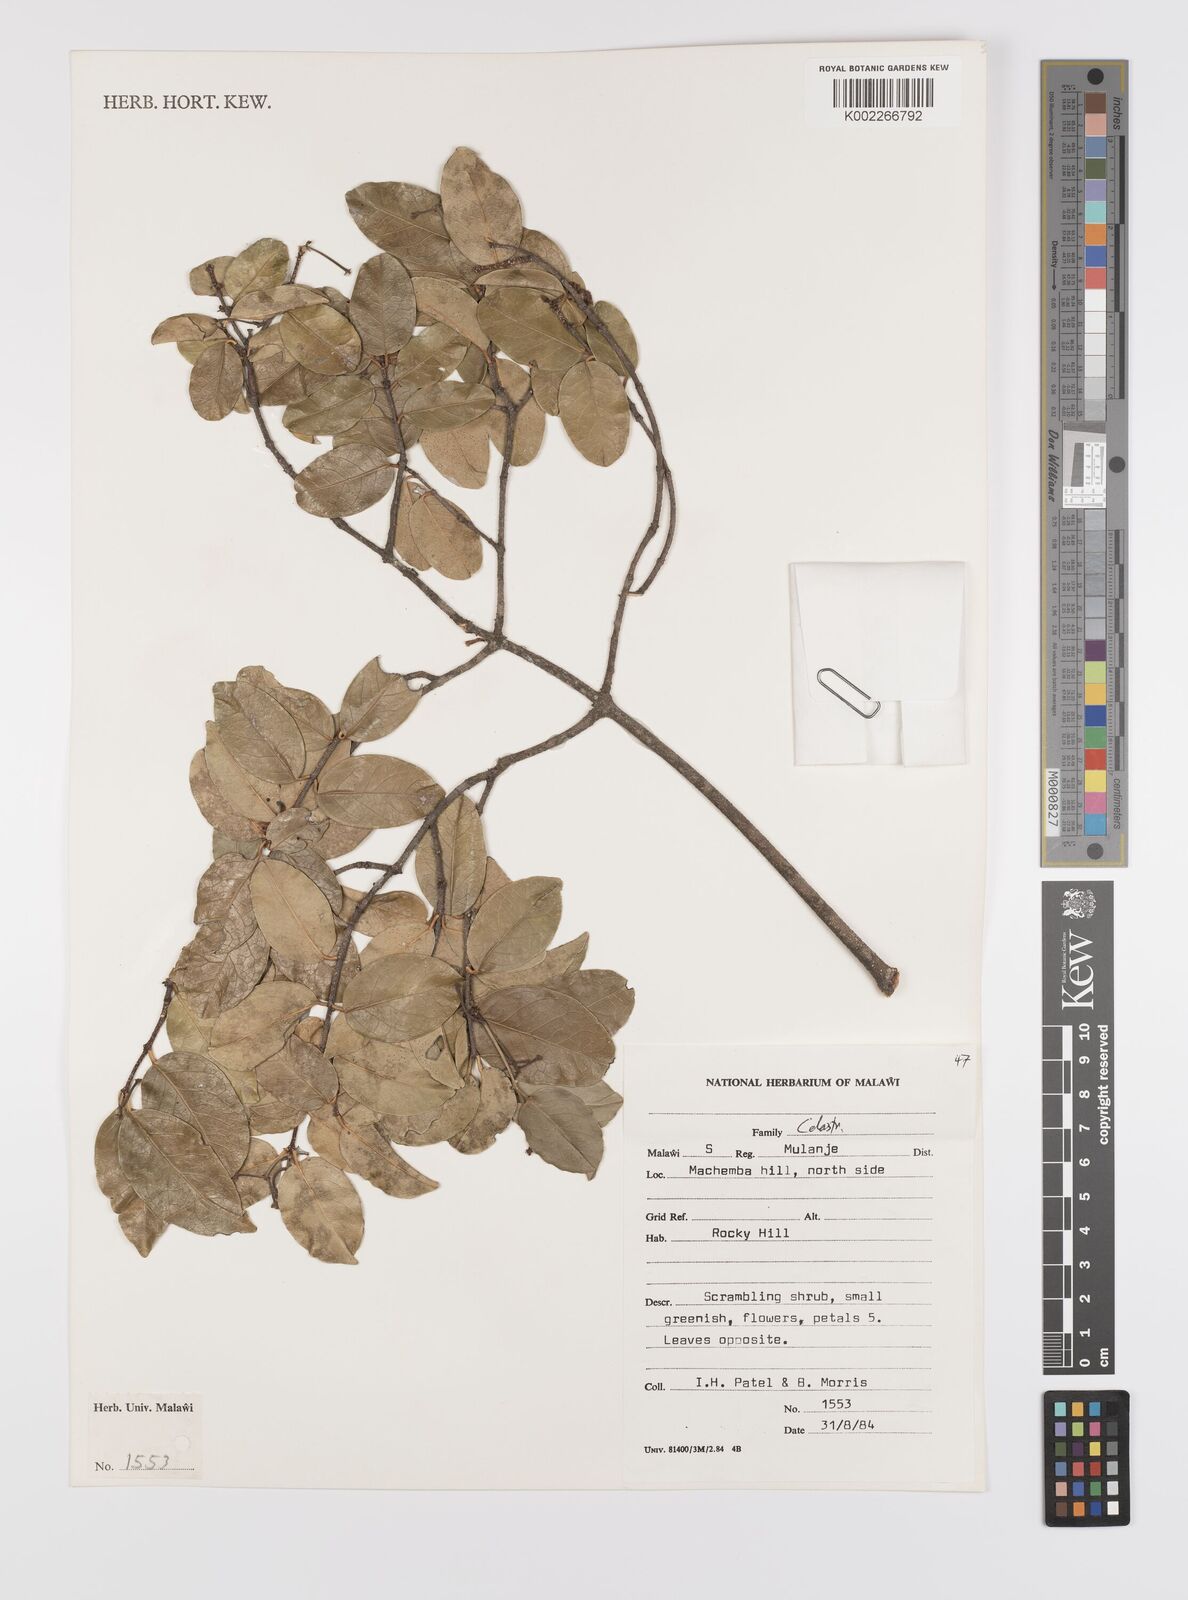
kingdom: Plantae
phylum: Tracheophyta
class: Magnoliopsida
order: Celastrales
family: Celastraceae
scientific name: Celastraceae
